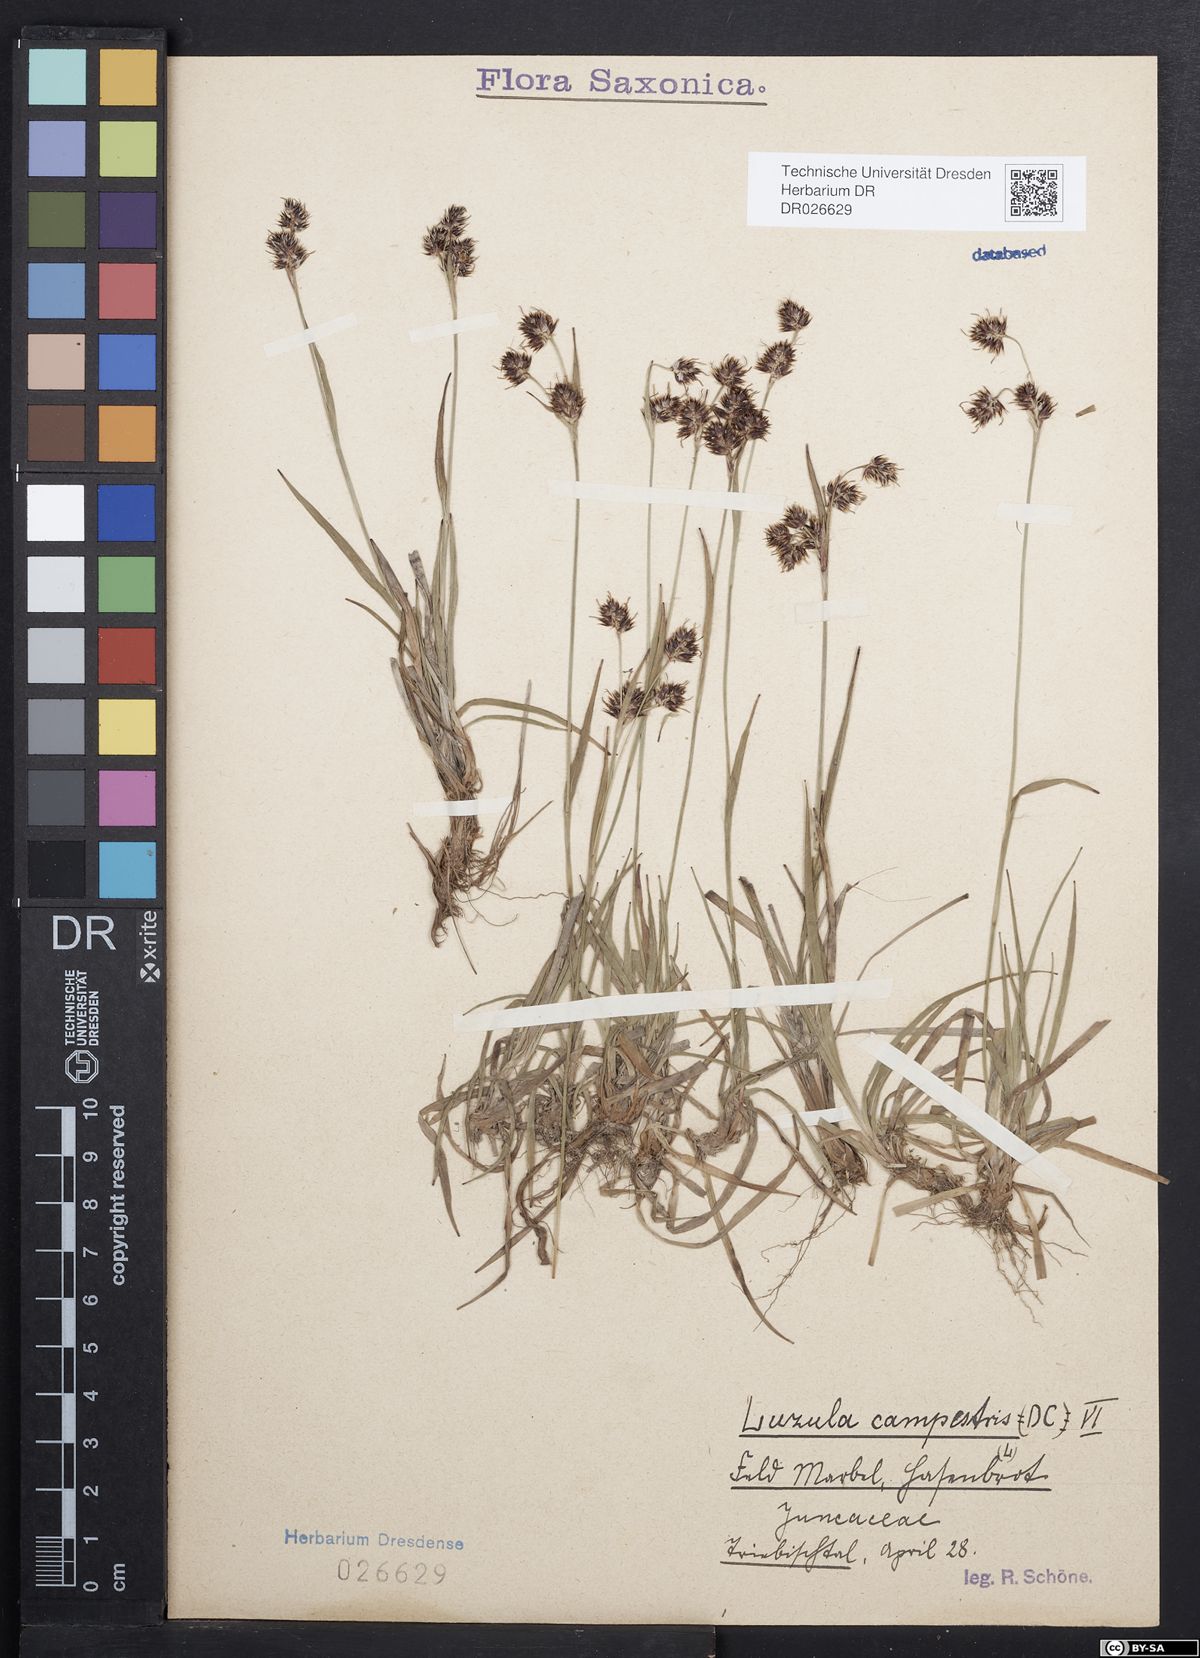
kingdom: Plantae
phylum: Tracheophyta
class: Liliopsida
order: Poales
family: Juncaceae
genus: Luzula
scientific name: Luzula campestris
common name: Field wood-rush
